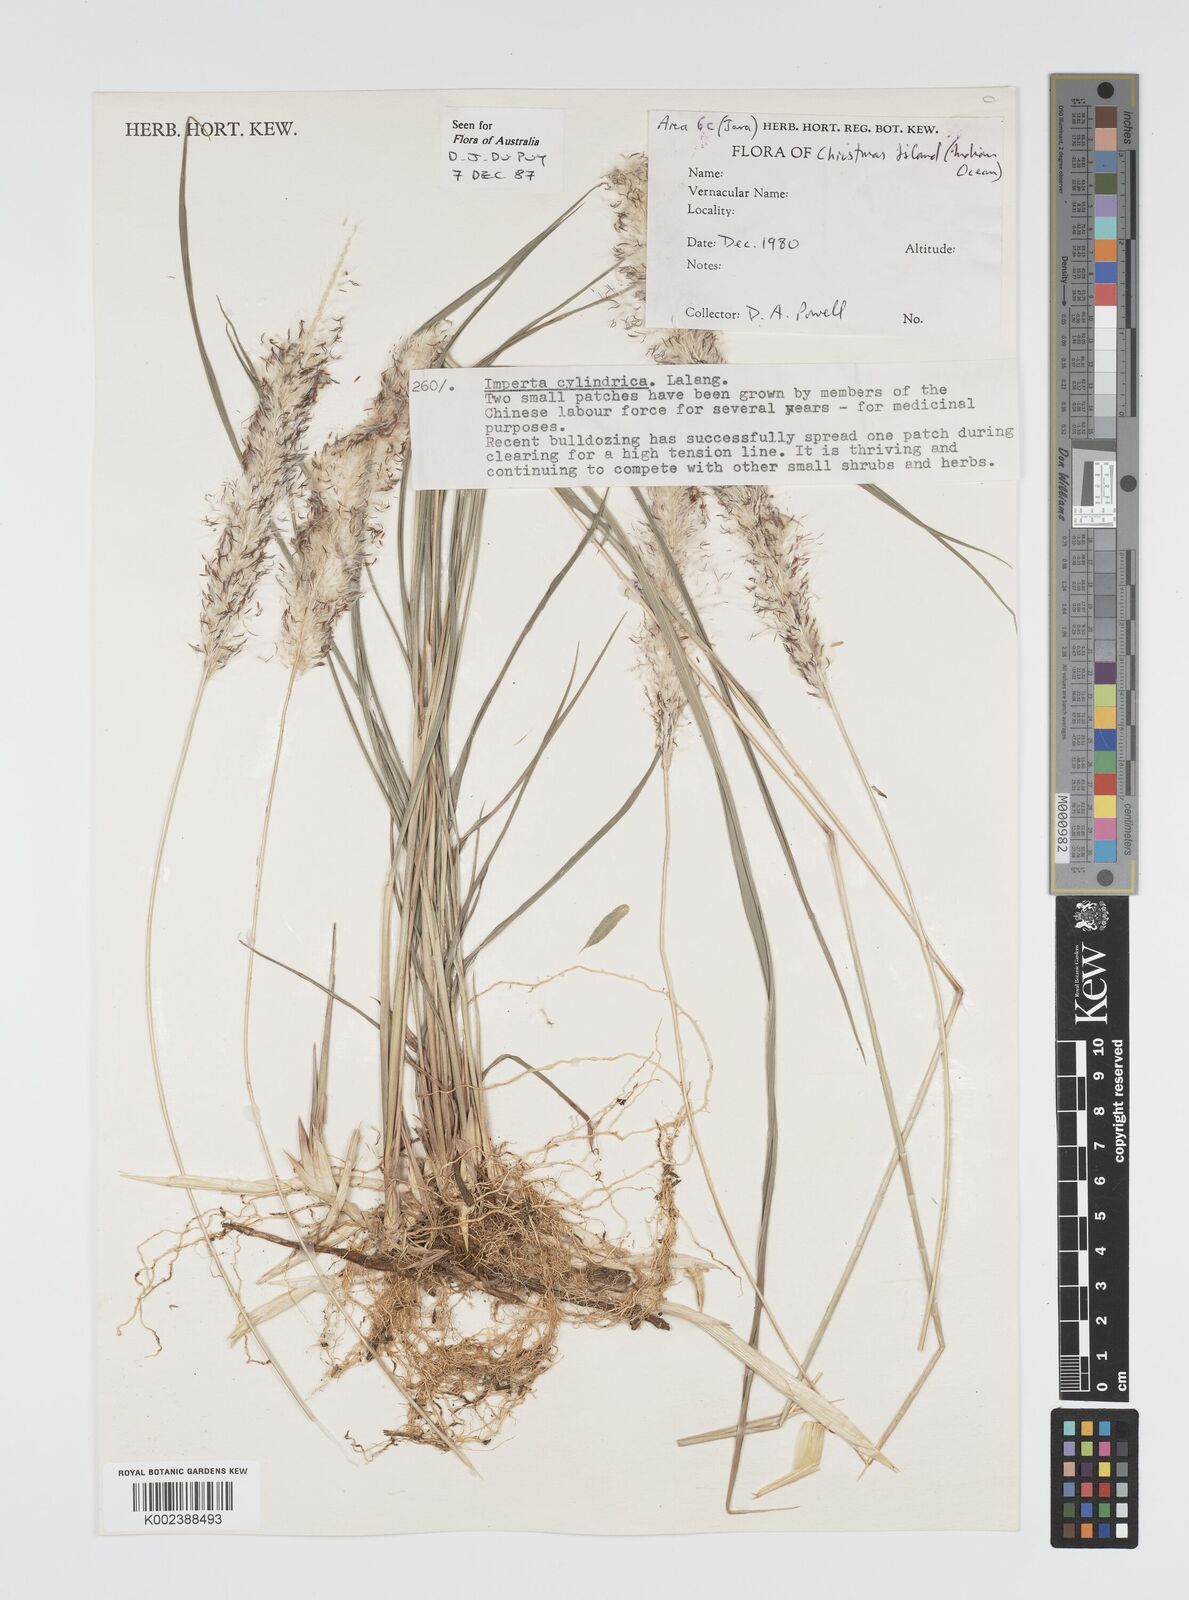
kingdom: Plantae
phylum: Tracheophyta
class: Liliopsida
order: Poales
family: Poaceae
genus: Imperata
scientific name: Imperata cylindrica
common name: Cogongrass
